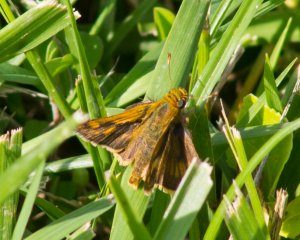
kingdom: Animalia
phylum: Arthropoda
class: Insecta
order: Lepidoptera
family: Hesperiidae
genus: Polites
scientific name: Polites coras
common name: Peck's Skipper
